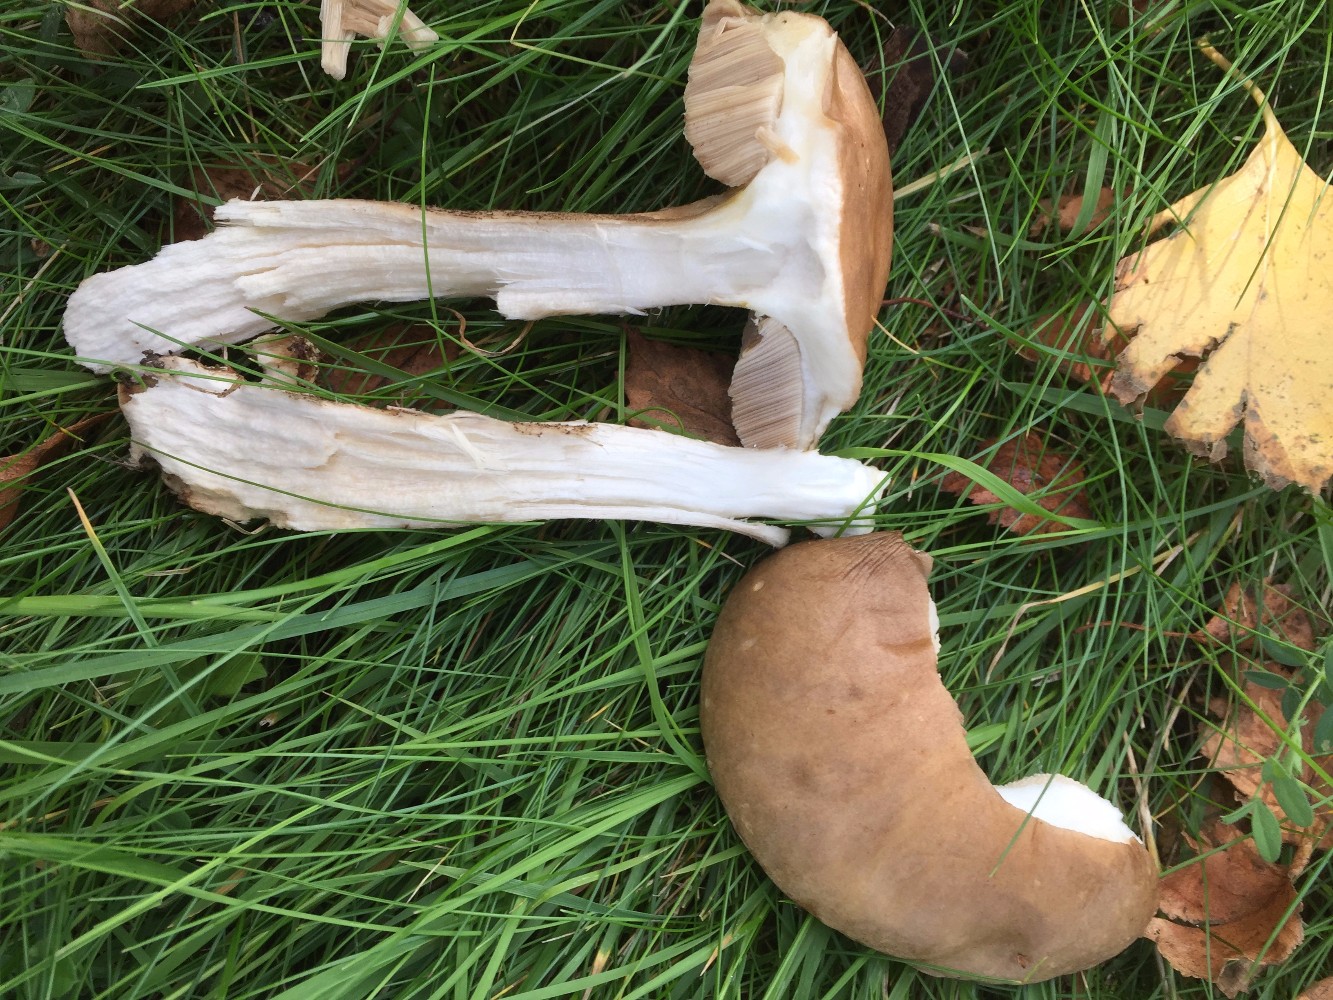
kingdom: Fungi
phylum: Basidiomycota
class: Agaricomycetes
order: Boletales
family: Boletaceae
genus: Leccinum
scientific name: Leccinum scabrum
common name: brun skælrørhat
